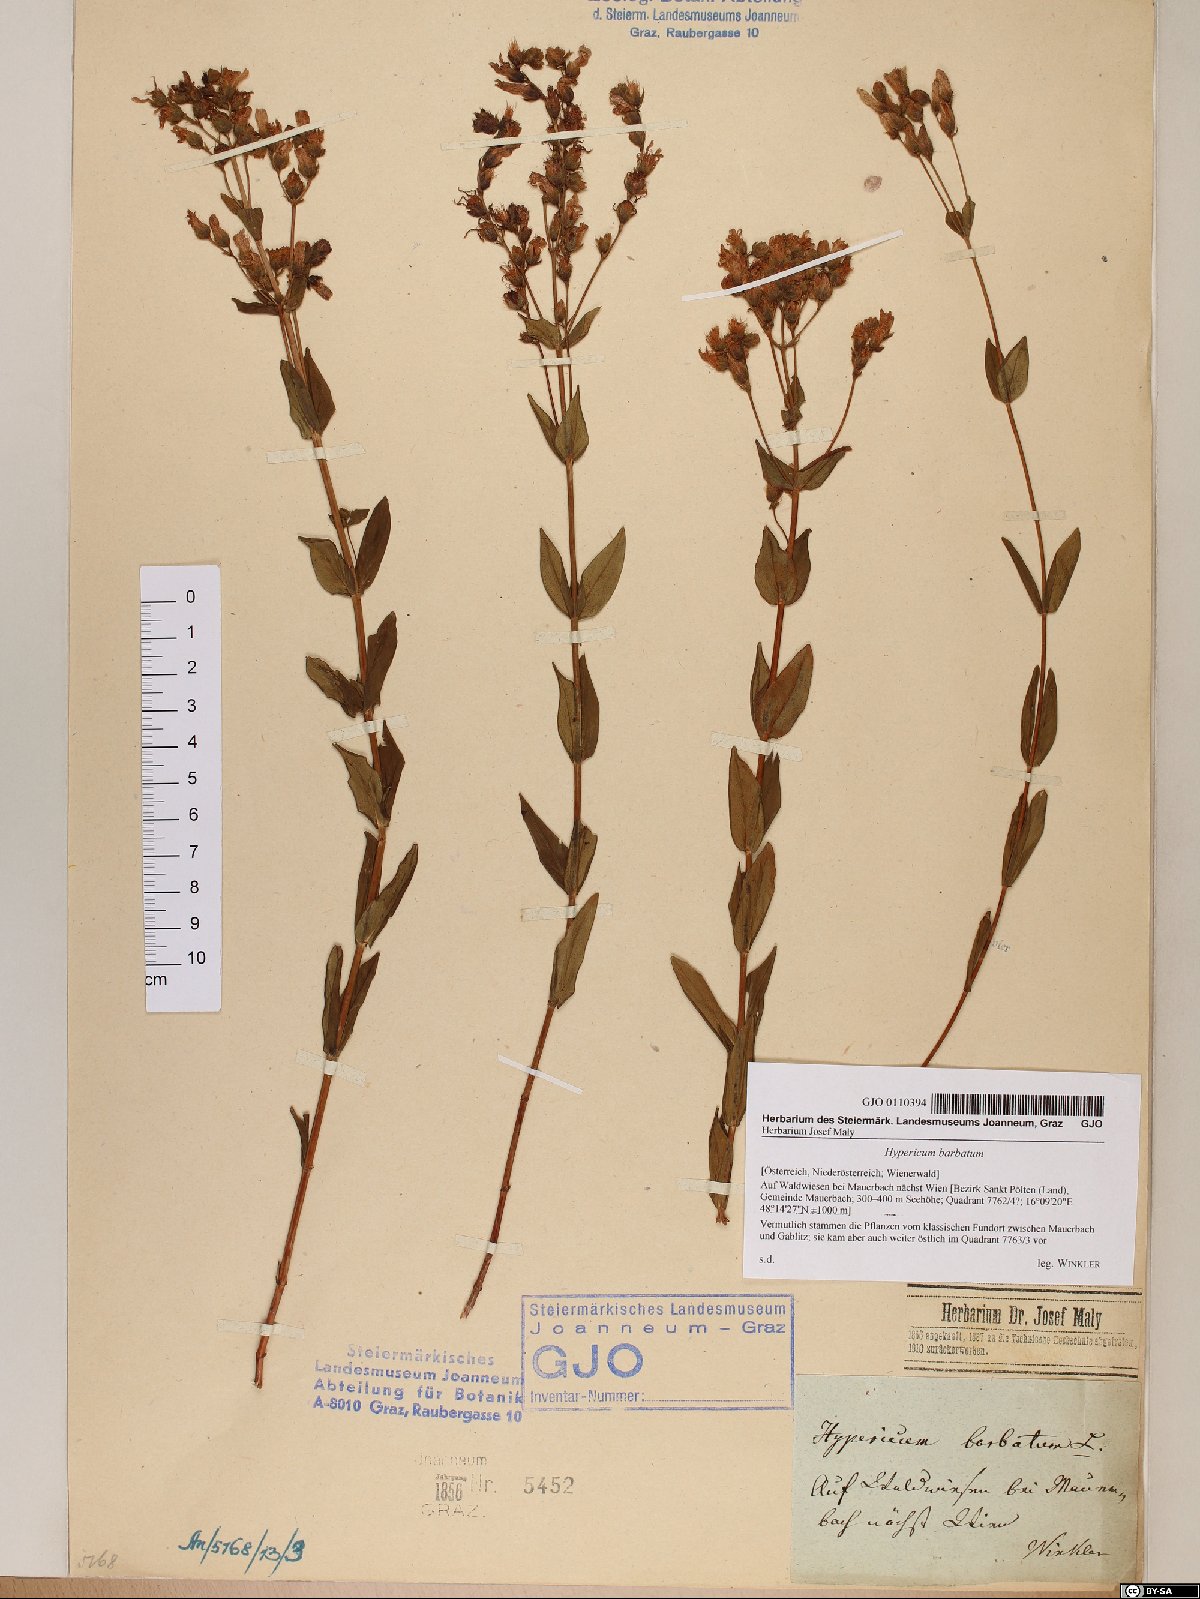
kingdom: Plantae
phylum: Tracheophyta
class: Magnoliopsida
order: Malpighiales
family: Hypericaceae
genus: Hypericum
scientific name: Hypericum barbatum
